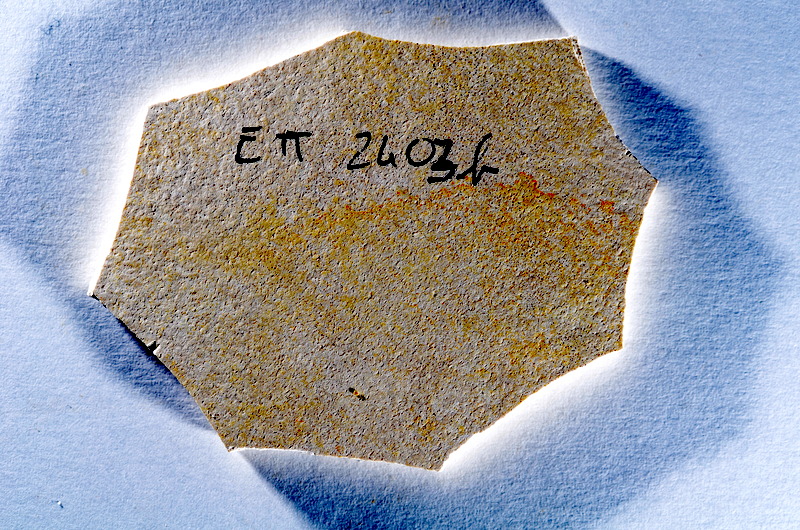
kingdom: Animalia
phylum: Chordata
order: Salmoniformes
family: Orthogonikleithridae
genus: Orthogonikleithrus
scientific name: Orthogonikleithrus hoelli
